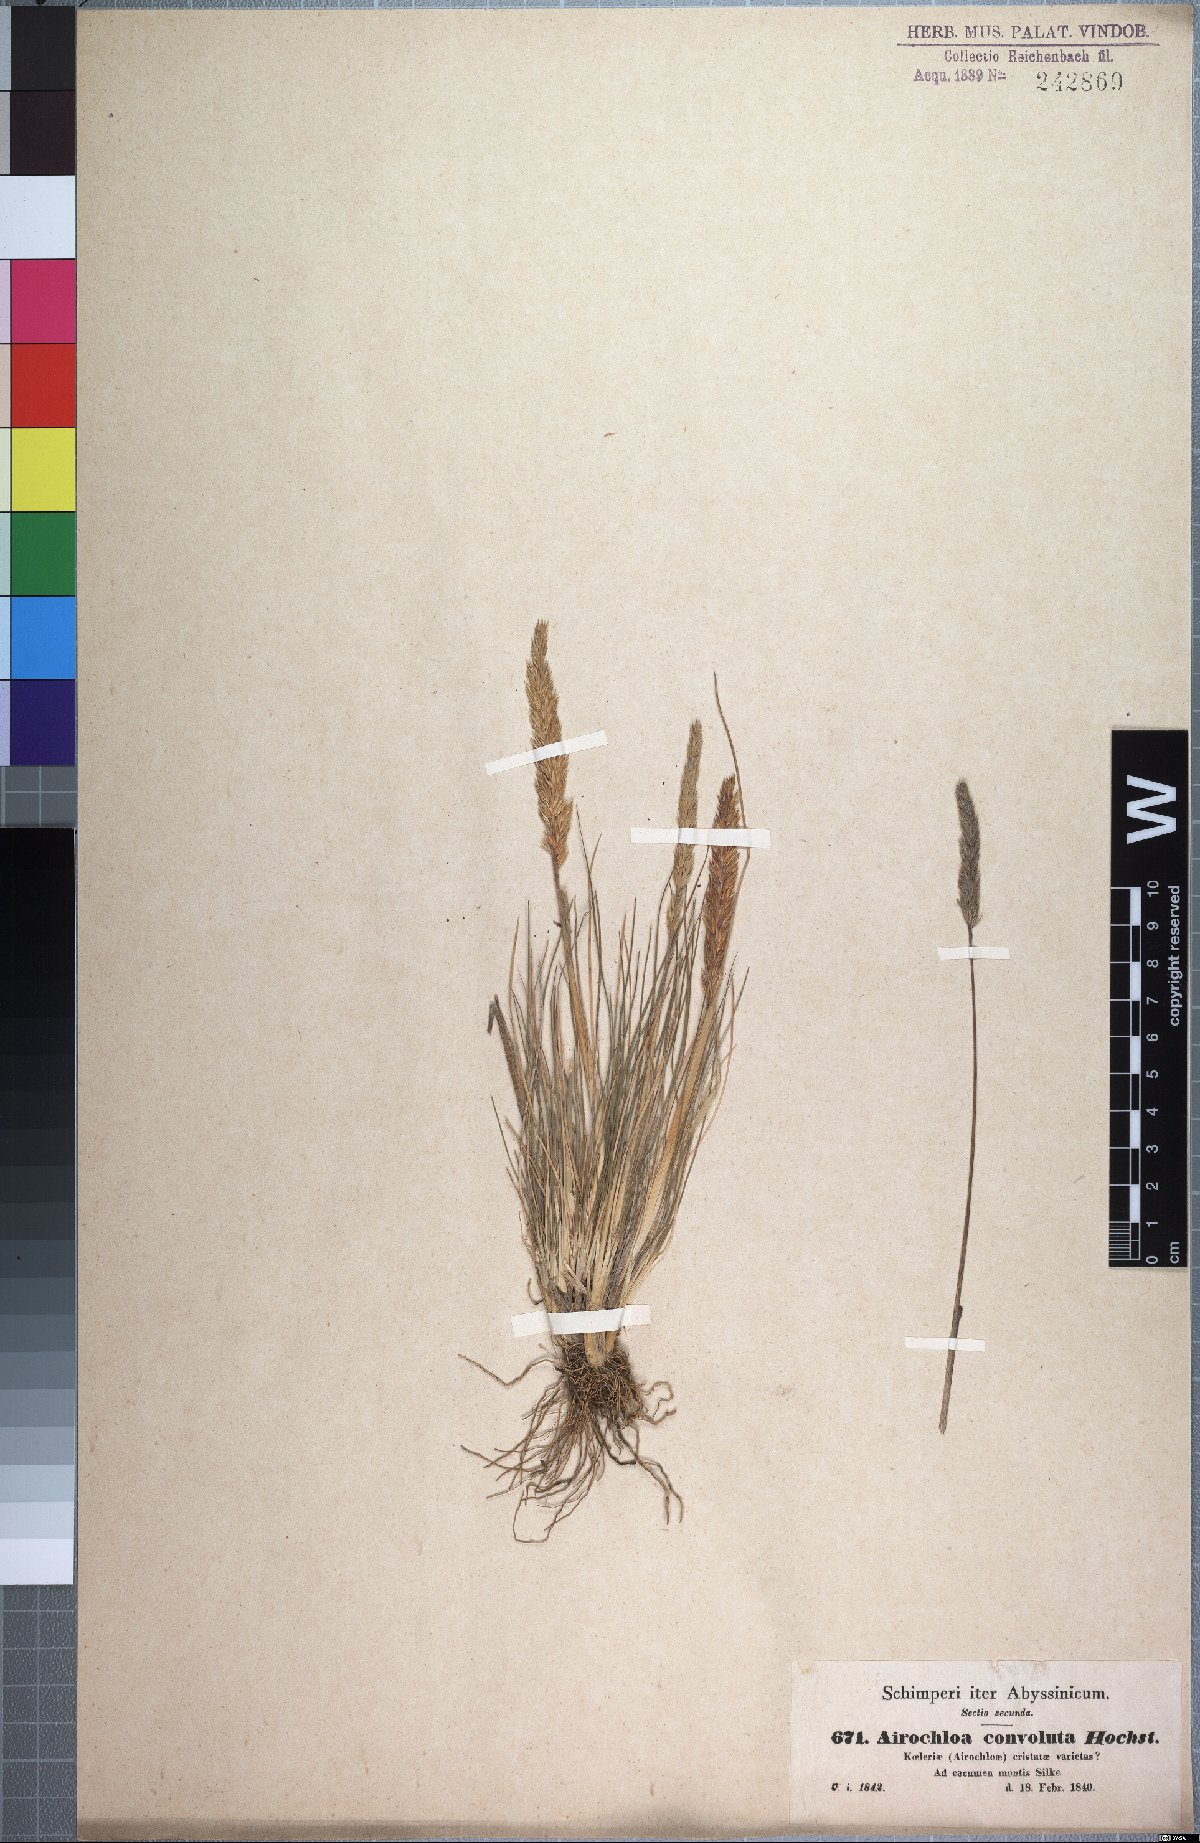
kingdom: Plantae
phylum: Tracheophyta
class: Liliopsida
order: Poales
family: Poaceae
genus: Koeleria
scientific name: Koeleria capensis
